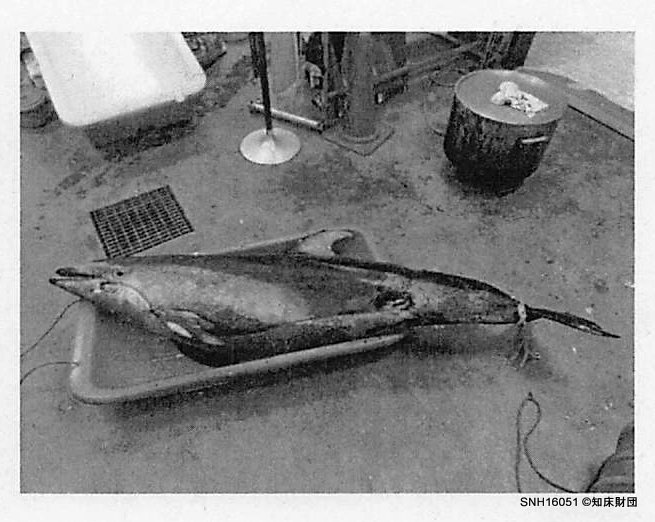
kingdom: Animalia
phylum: Chordata
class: Mammalia
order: Cetacea
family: Delphinidae
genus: Lagenorhynchus
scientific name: Lagenorhynchus obliquidens
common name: Pacific white-sided dolphin
